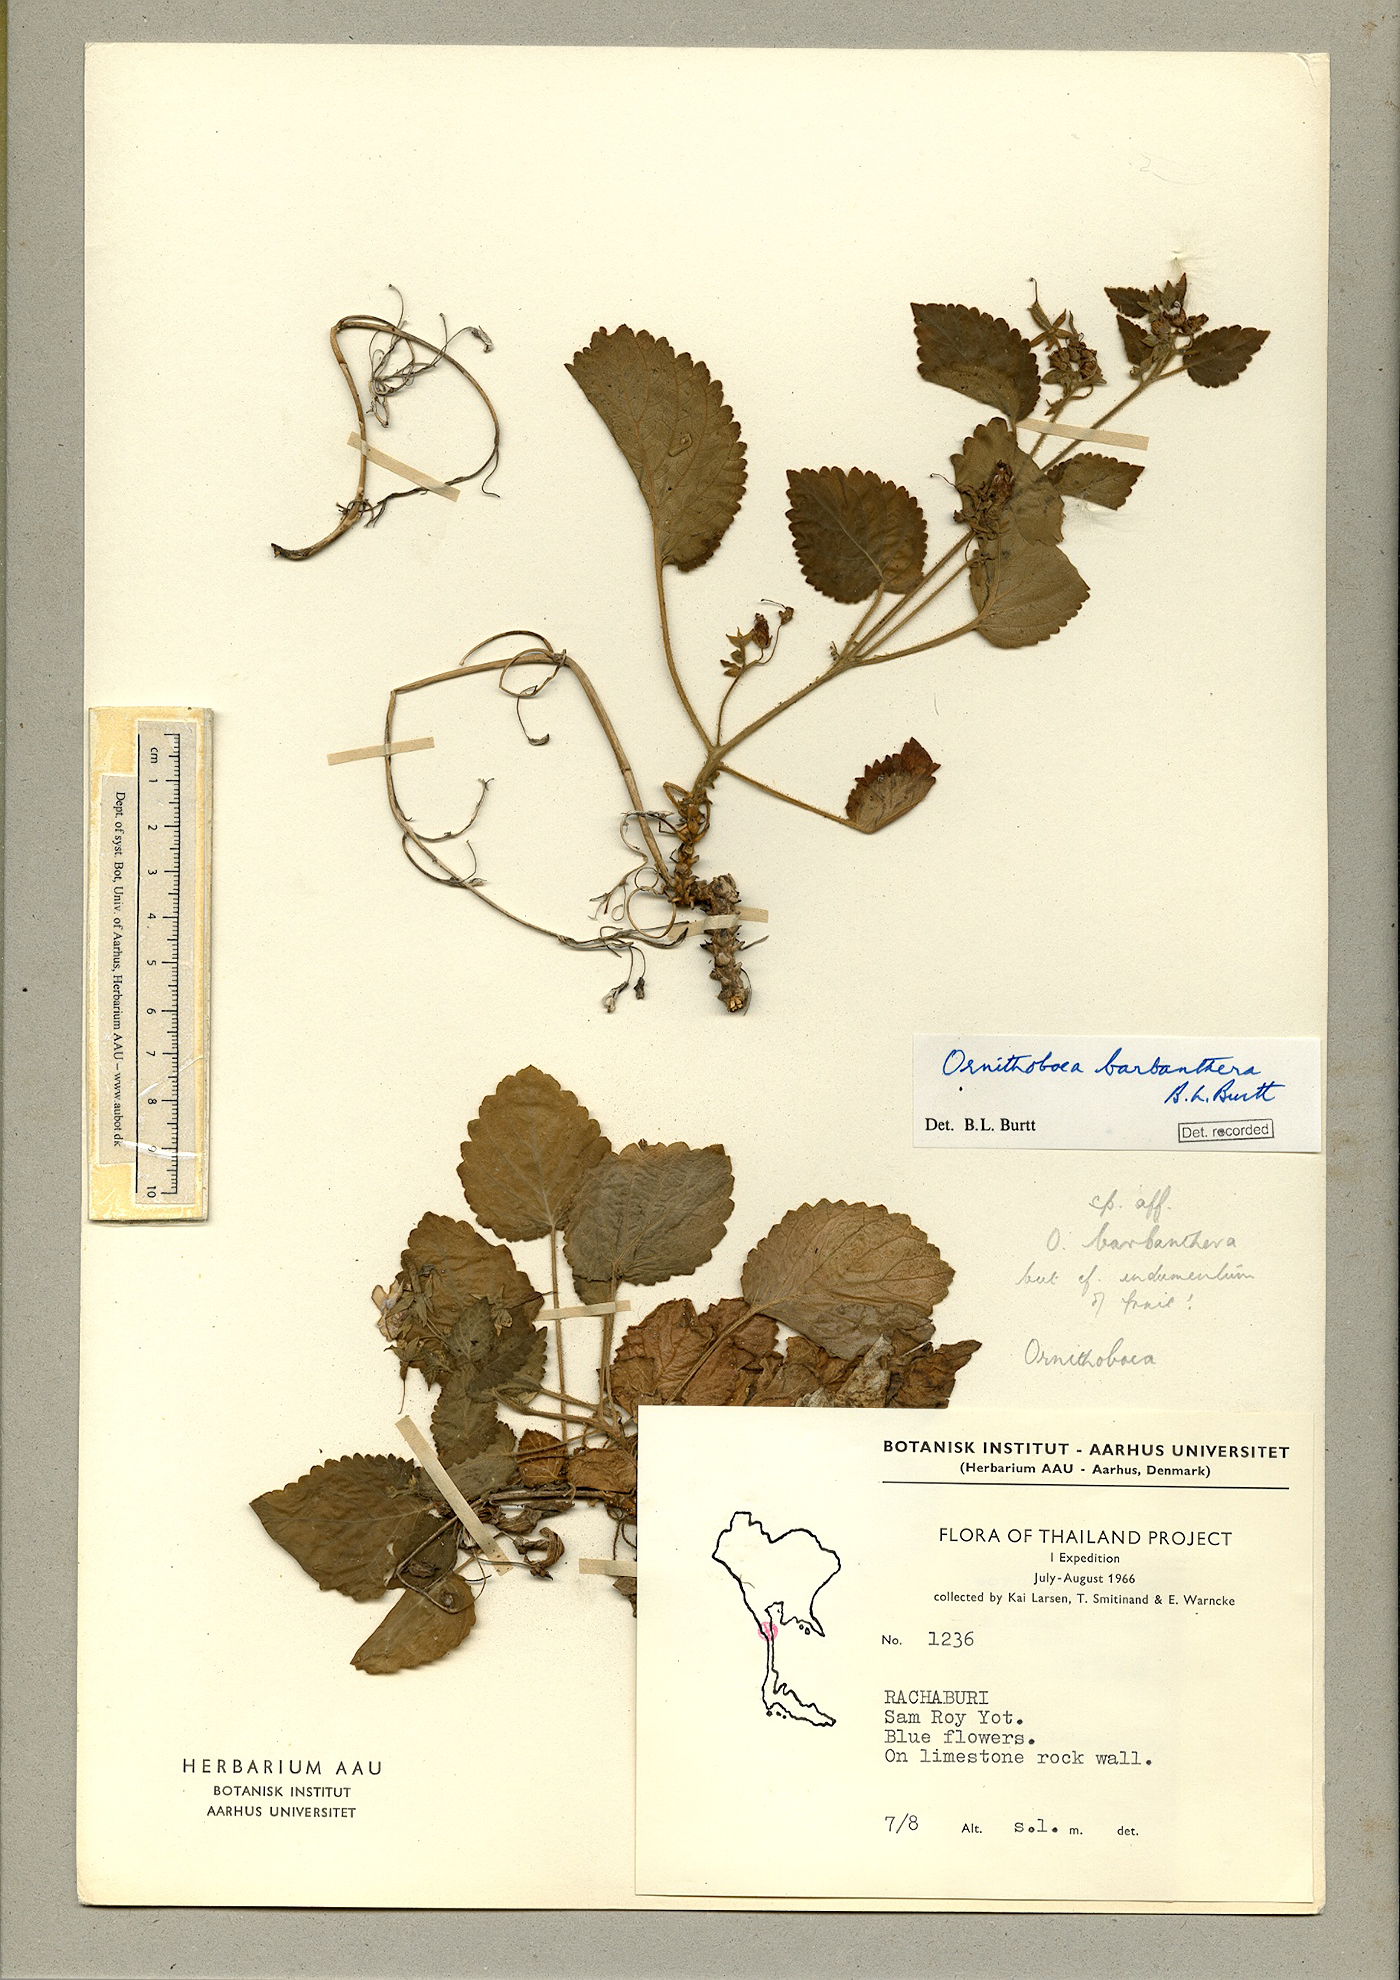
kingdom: Plantae
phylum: Tracheophyta
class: Magnoliopsida
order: Lamiales
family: Gesneriaceae
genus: Ornithoboea
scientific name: Ornithoboea barbanthera
